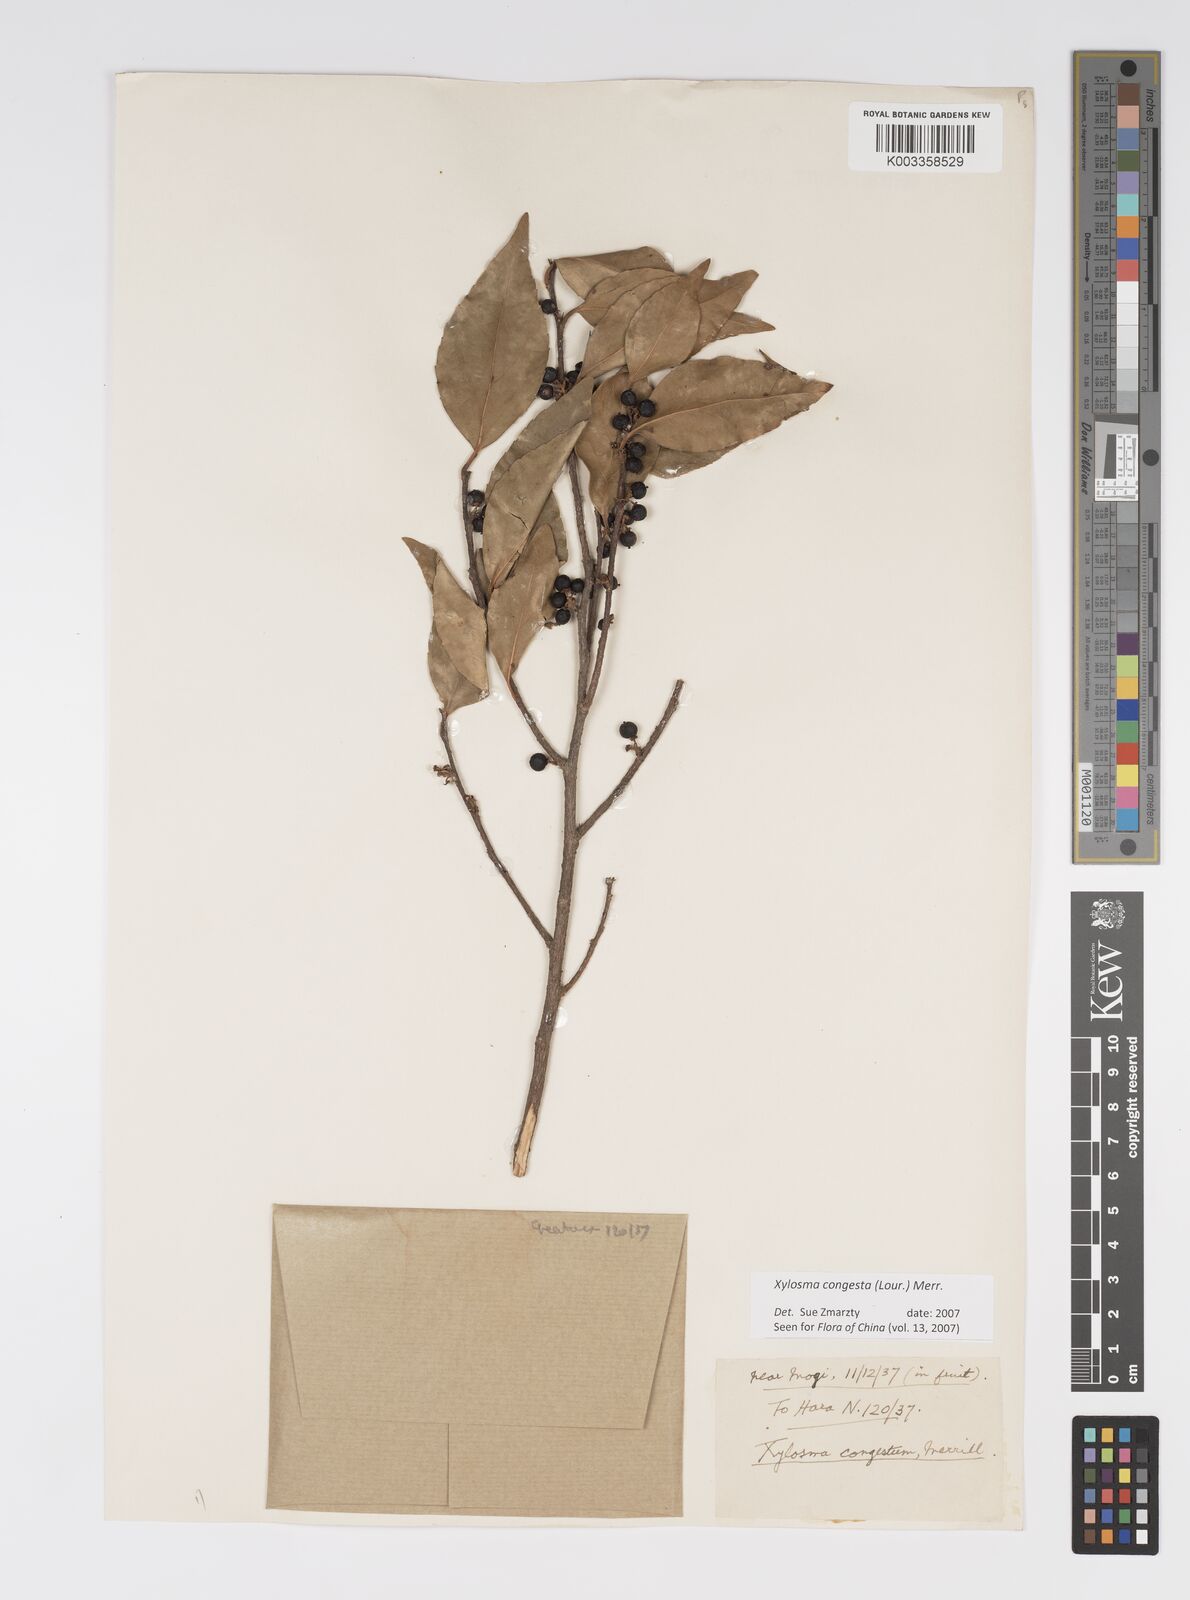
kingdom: Plantae
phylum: Tracheophyta
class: Magnoliopsida
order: Malpighiales
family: Salicaceae
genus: Xylosma
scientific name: Xylosma racemosum
